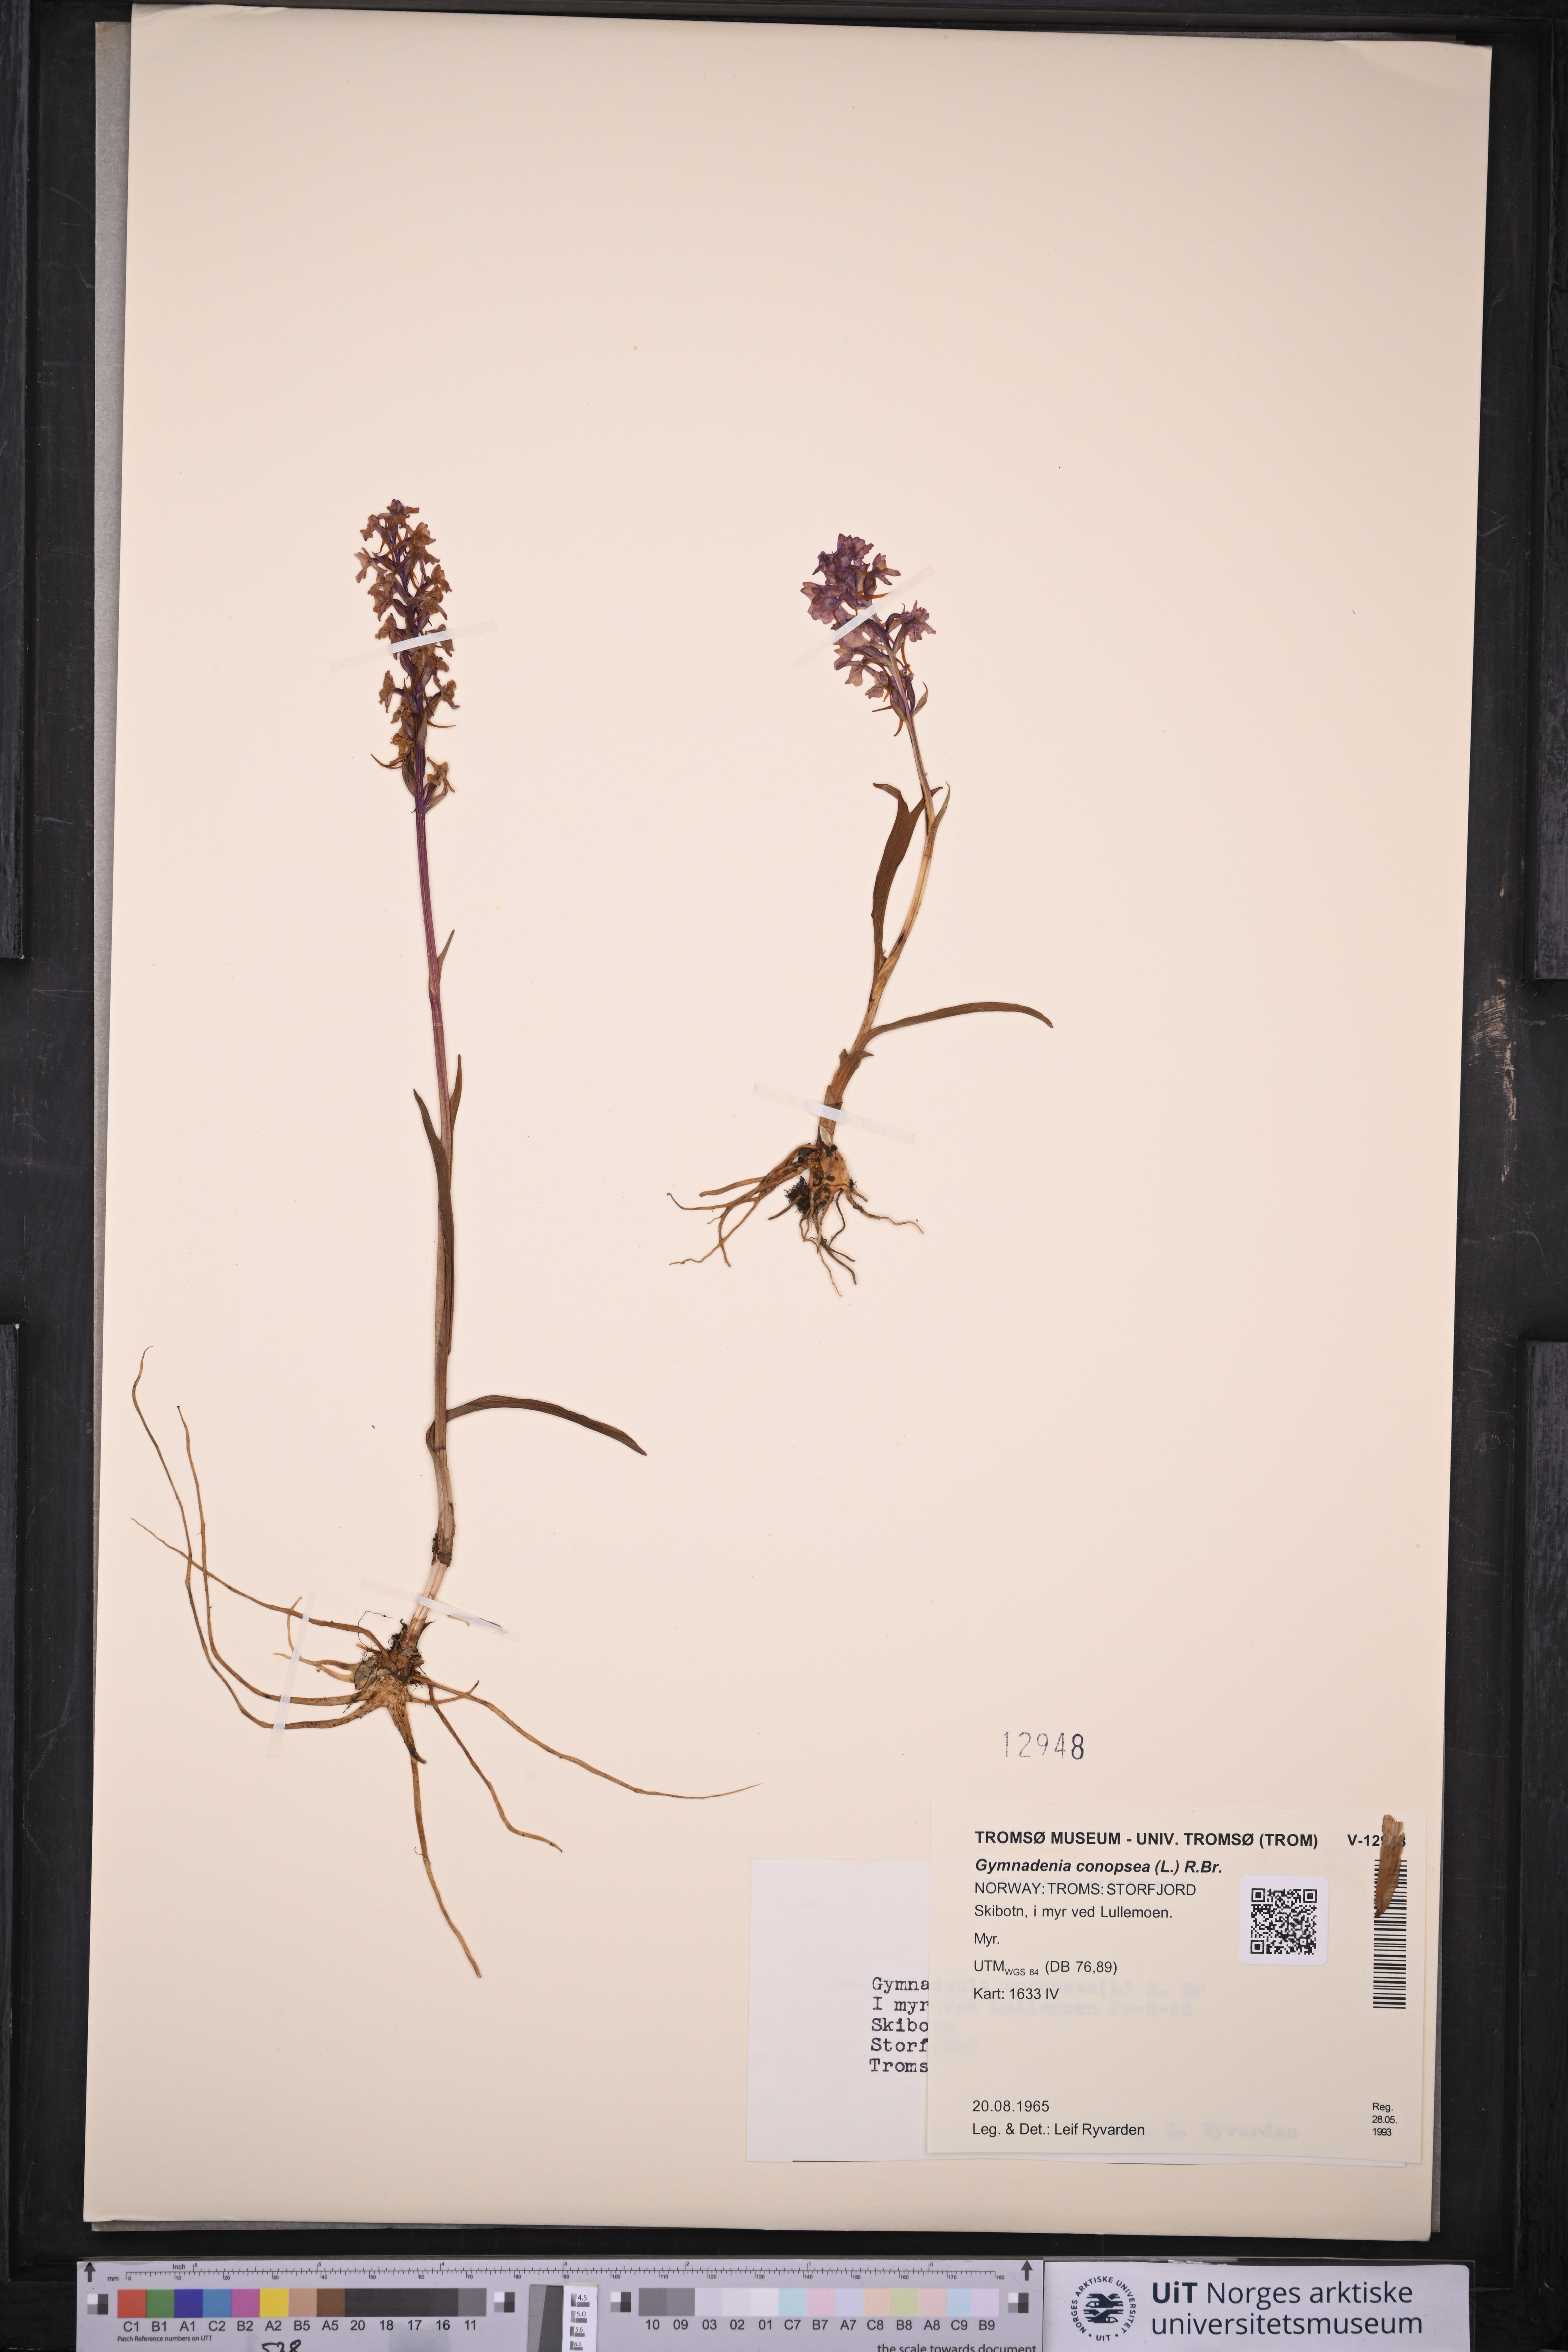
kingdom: Plantae
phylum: Tracheophyta
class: Liliopsida
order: Asparagales
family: Orchidaceae
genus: Gymnadenia
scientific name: Gymnadenia conopsea
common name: Fragrant orchid
